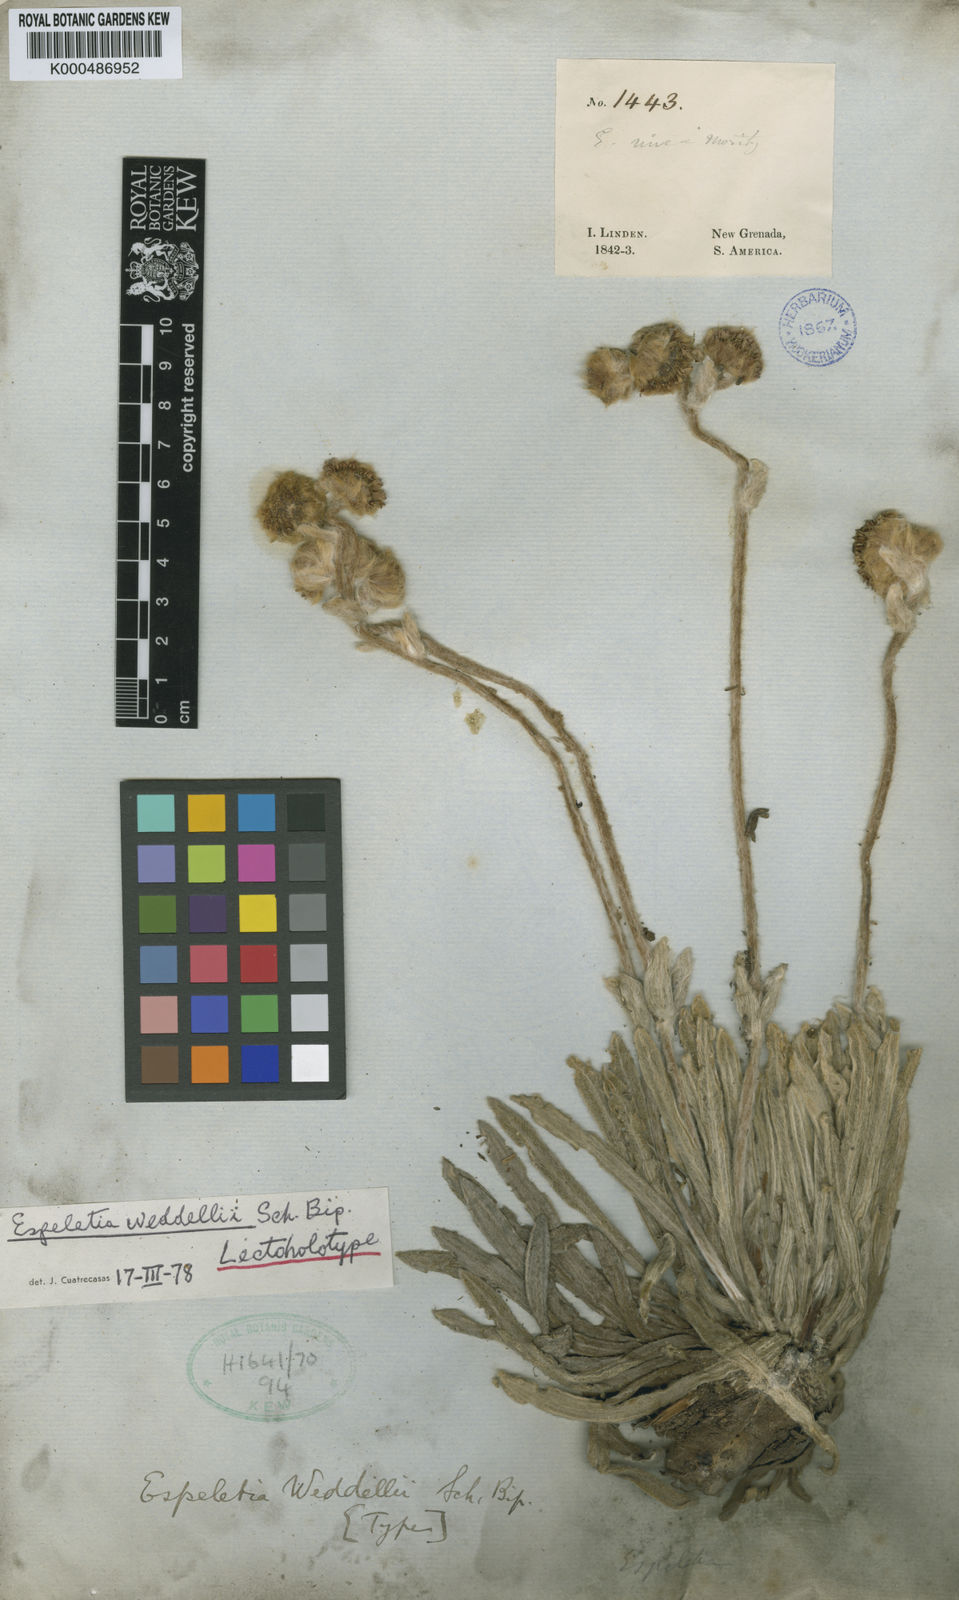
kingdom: Plantae
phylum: Tracheophyta
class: Magnoliopsida
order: Asterales
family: Asteraceae
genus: Espeletia
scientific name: Espeletia
